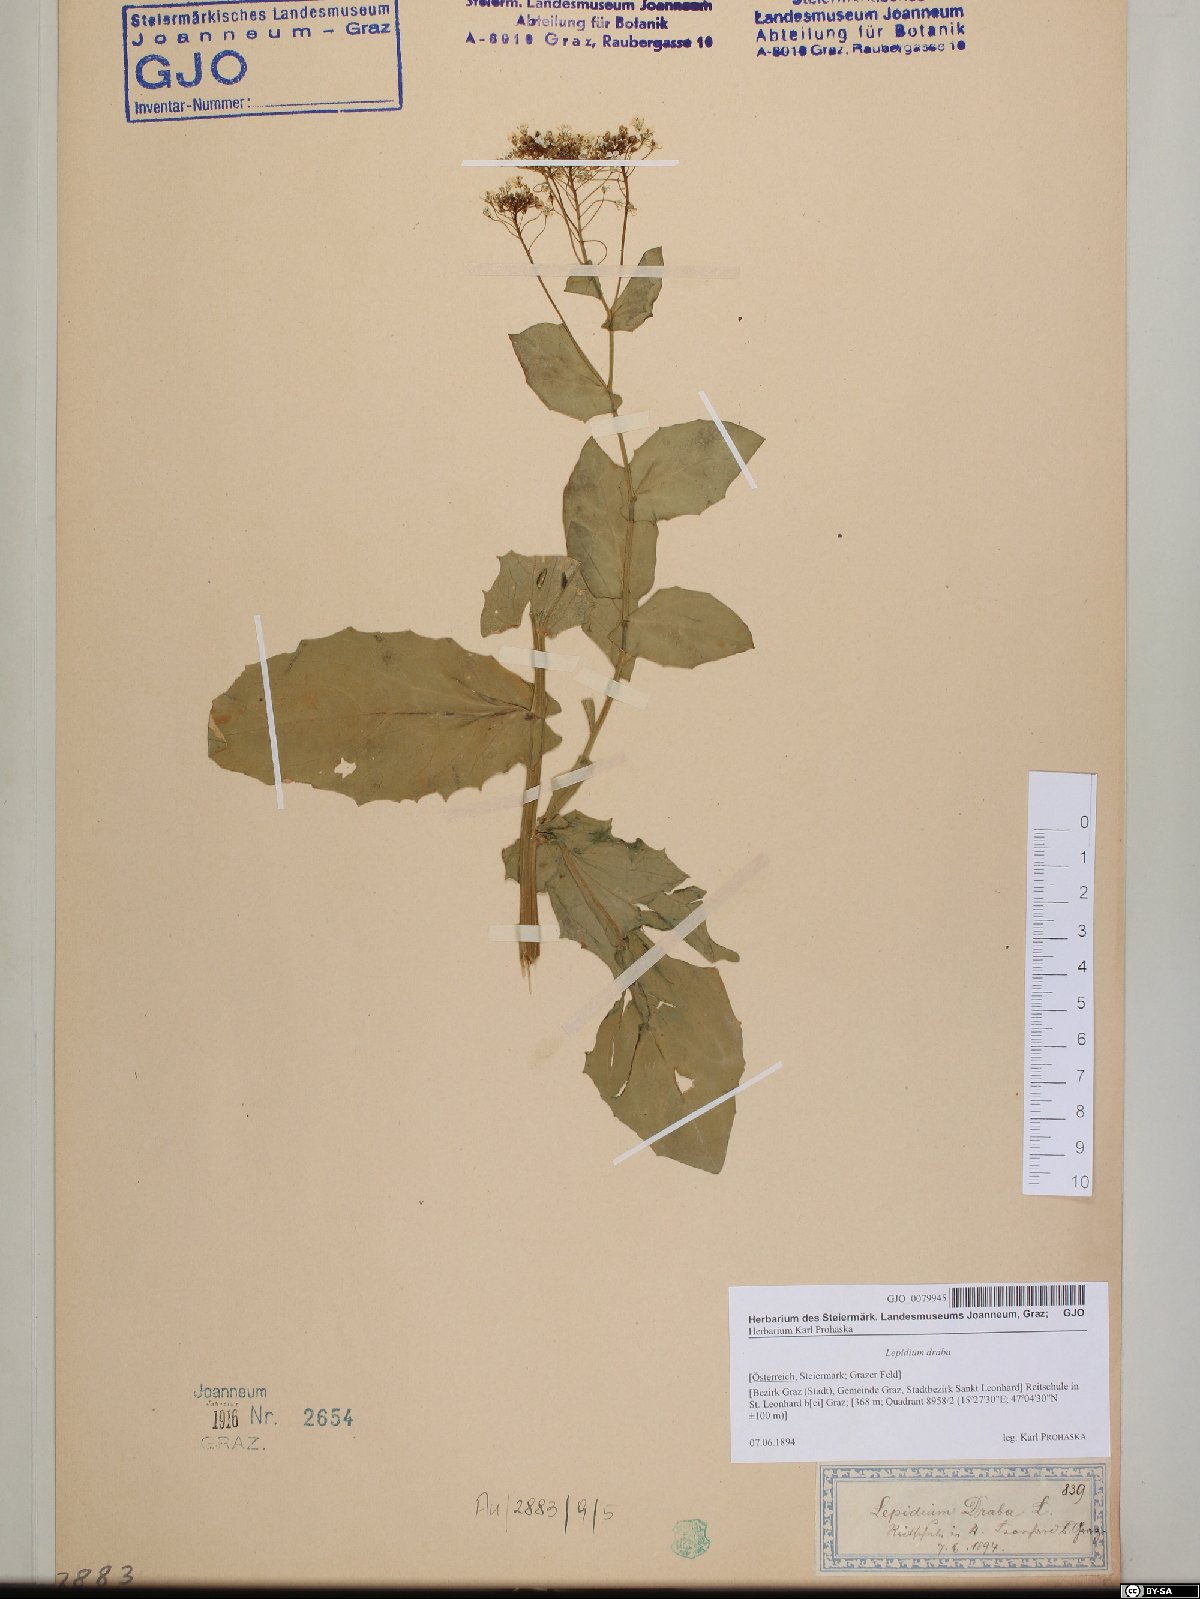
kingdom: Plantae
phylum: Tracheophyta
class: Magnoliopsida
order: Brassicales
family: Brassicaceae
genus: Lepidium
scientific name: Lepidium draba
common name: Hoary cress
